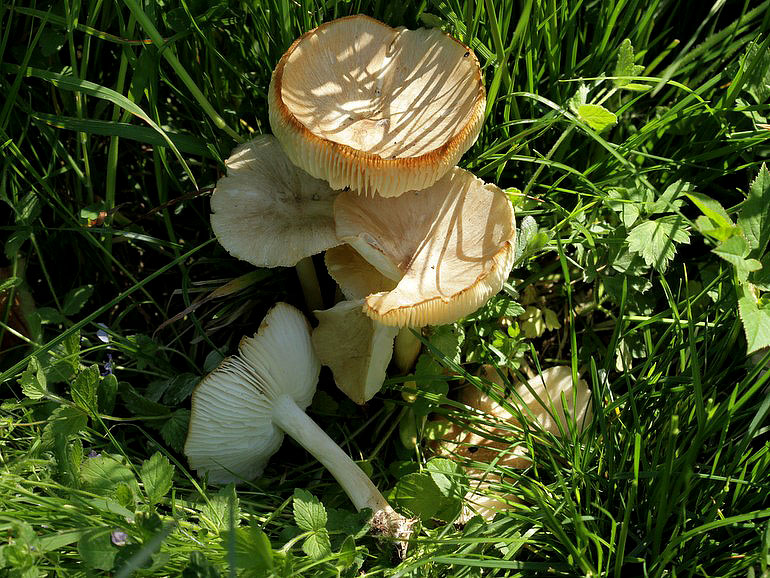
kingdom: Fungi
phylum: Basidiomycota
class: Agaricomycetes
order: Agaricales
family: Tricholomataceae
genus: Megacollybia
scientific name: Megacollybia platyphylla
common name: bredbladet væbnerhat
